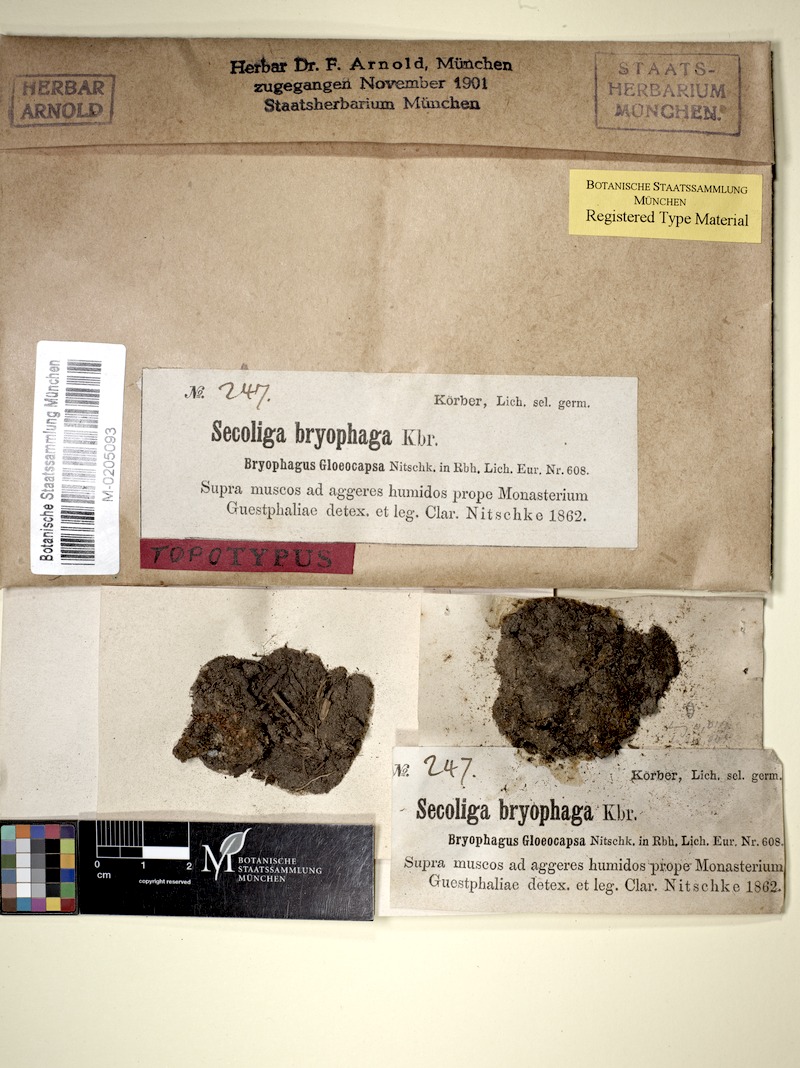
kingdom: Fungi
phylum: Ascomycota
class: Lecanoromycetes
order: Ostropales
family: Stictidaceae
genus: Cryptodiscus
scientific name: Cryptodiscus gloeocapsa
